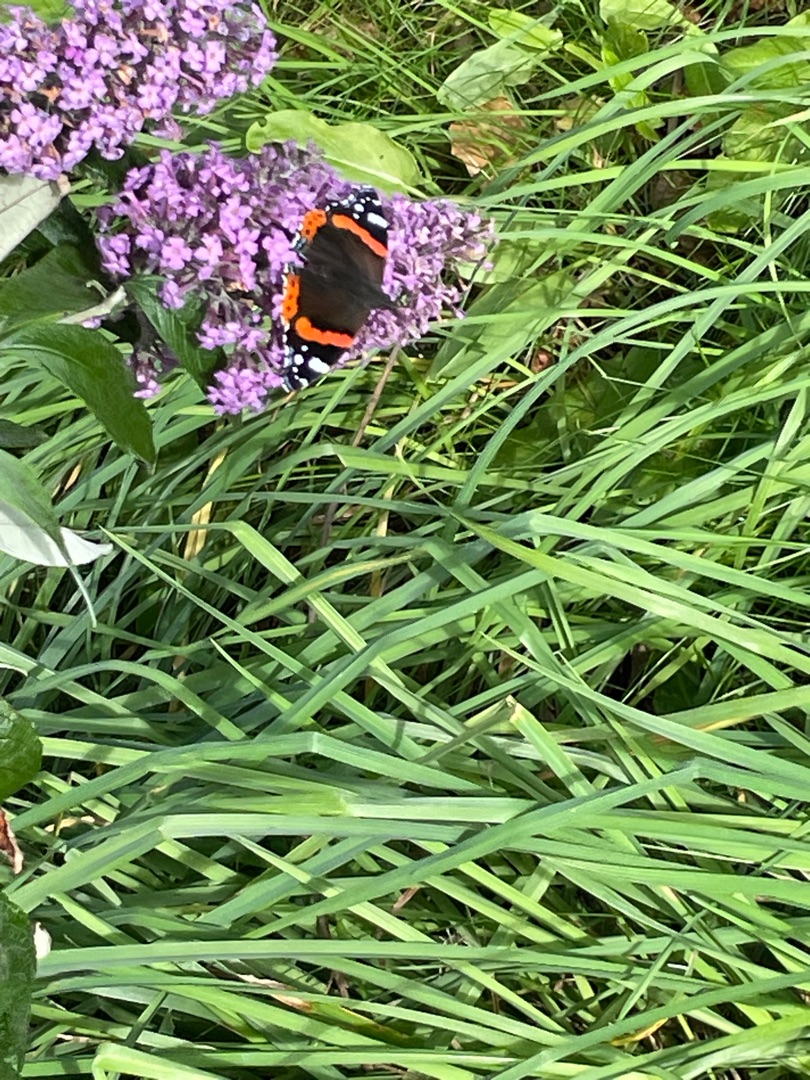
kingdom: Animalia
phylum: Arthropoda
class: Insecta
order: Lepidoptera
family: Nymphalidae
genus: Vanessa
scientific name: Vanessa atalanta
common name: Admiral
